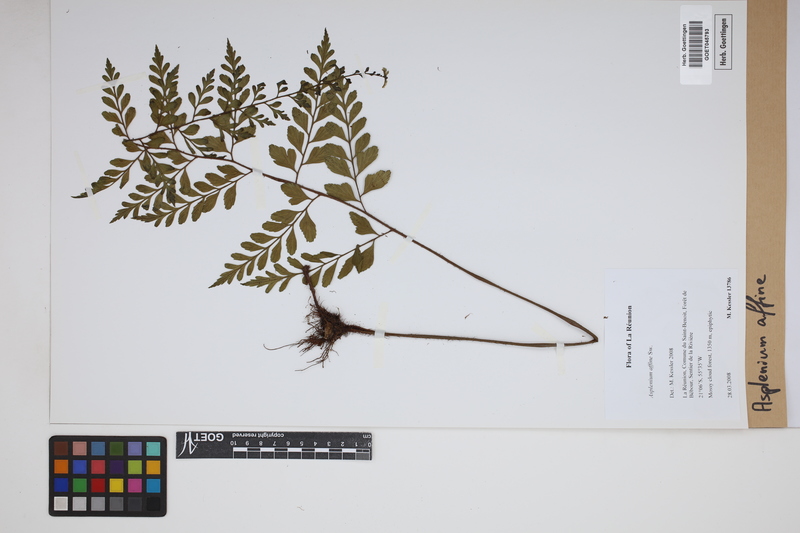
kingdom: Plantae
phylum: Tracheophyta
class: Polypodiopsida
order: Polypodiales
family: Aspleniaceae
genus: Asplenium
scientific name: Asplenium affine
